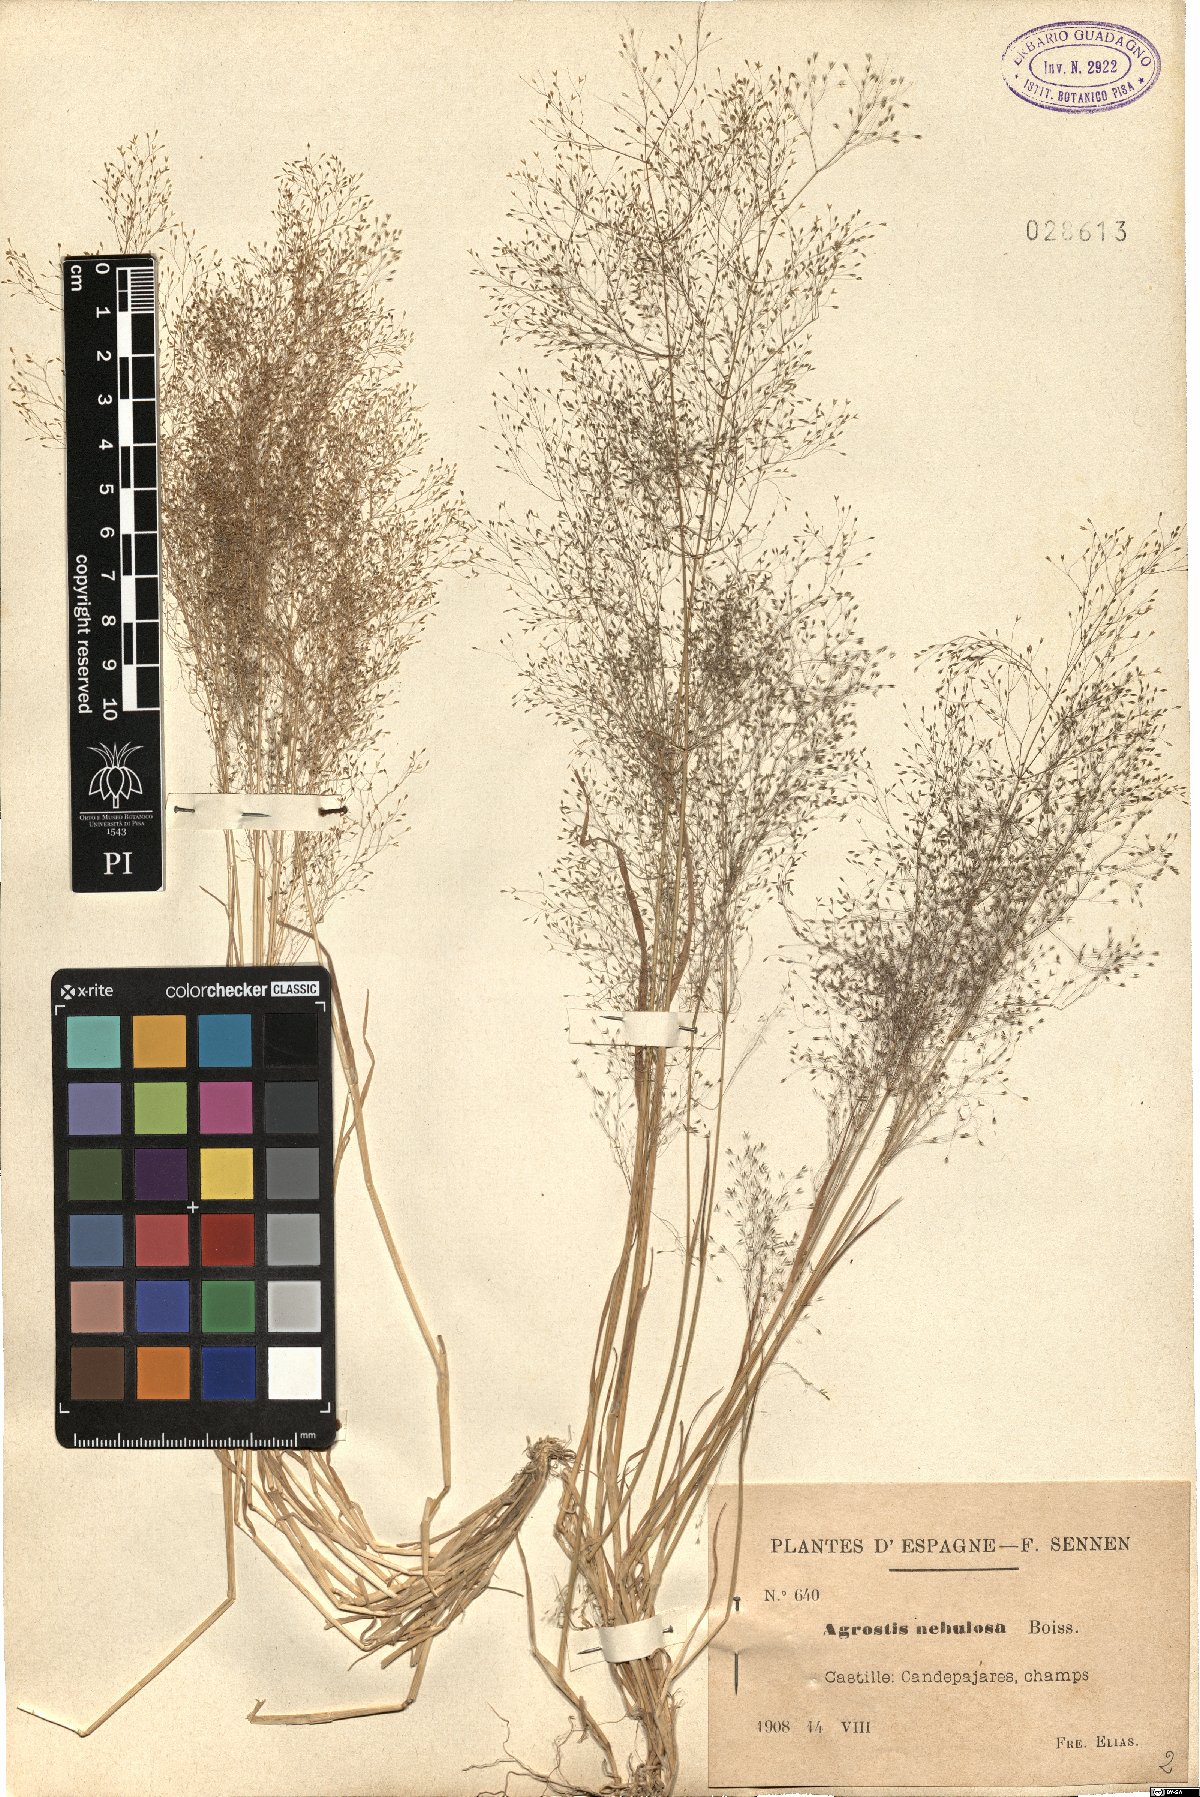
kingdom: Plantae
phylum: Tracheophyta
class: Liliopsida
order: Poales
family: Poaceae
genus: Agrostis
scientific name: Agrostis nebulosa
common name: Cloud grass
